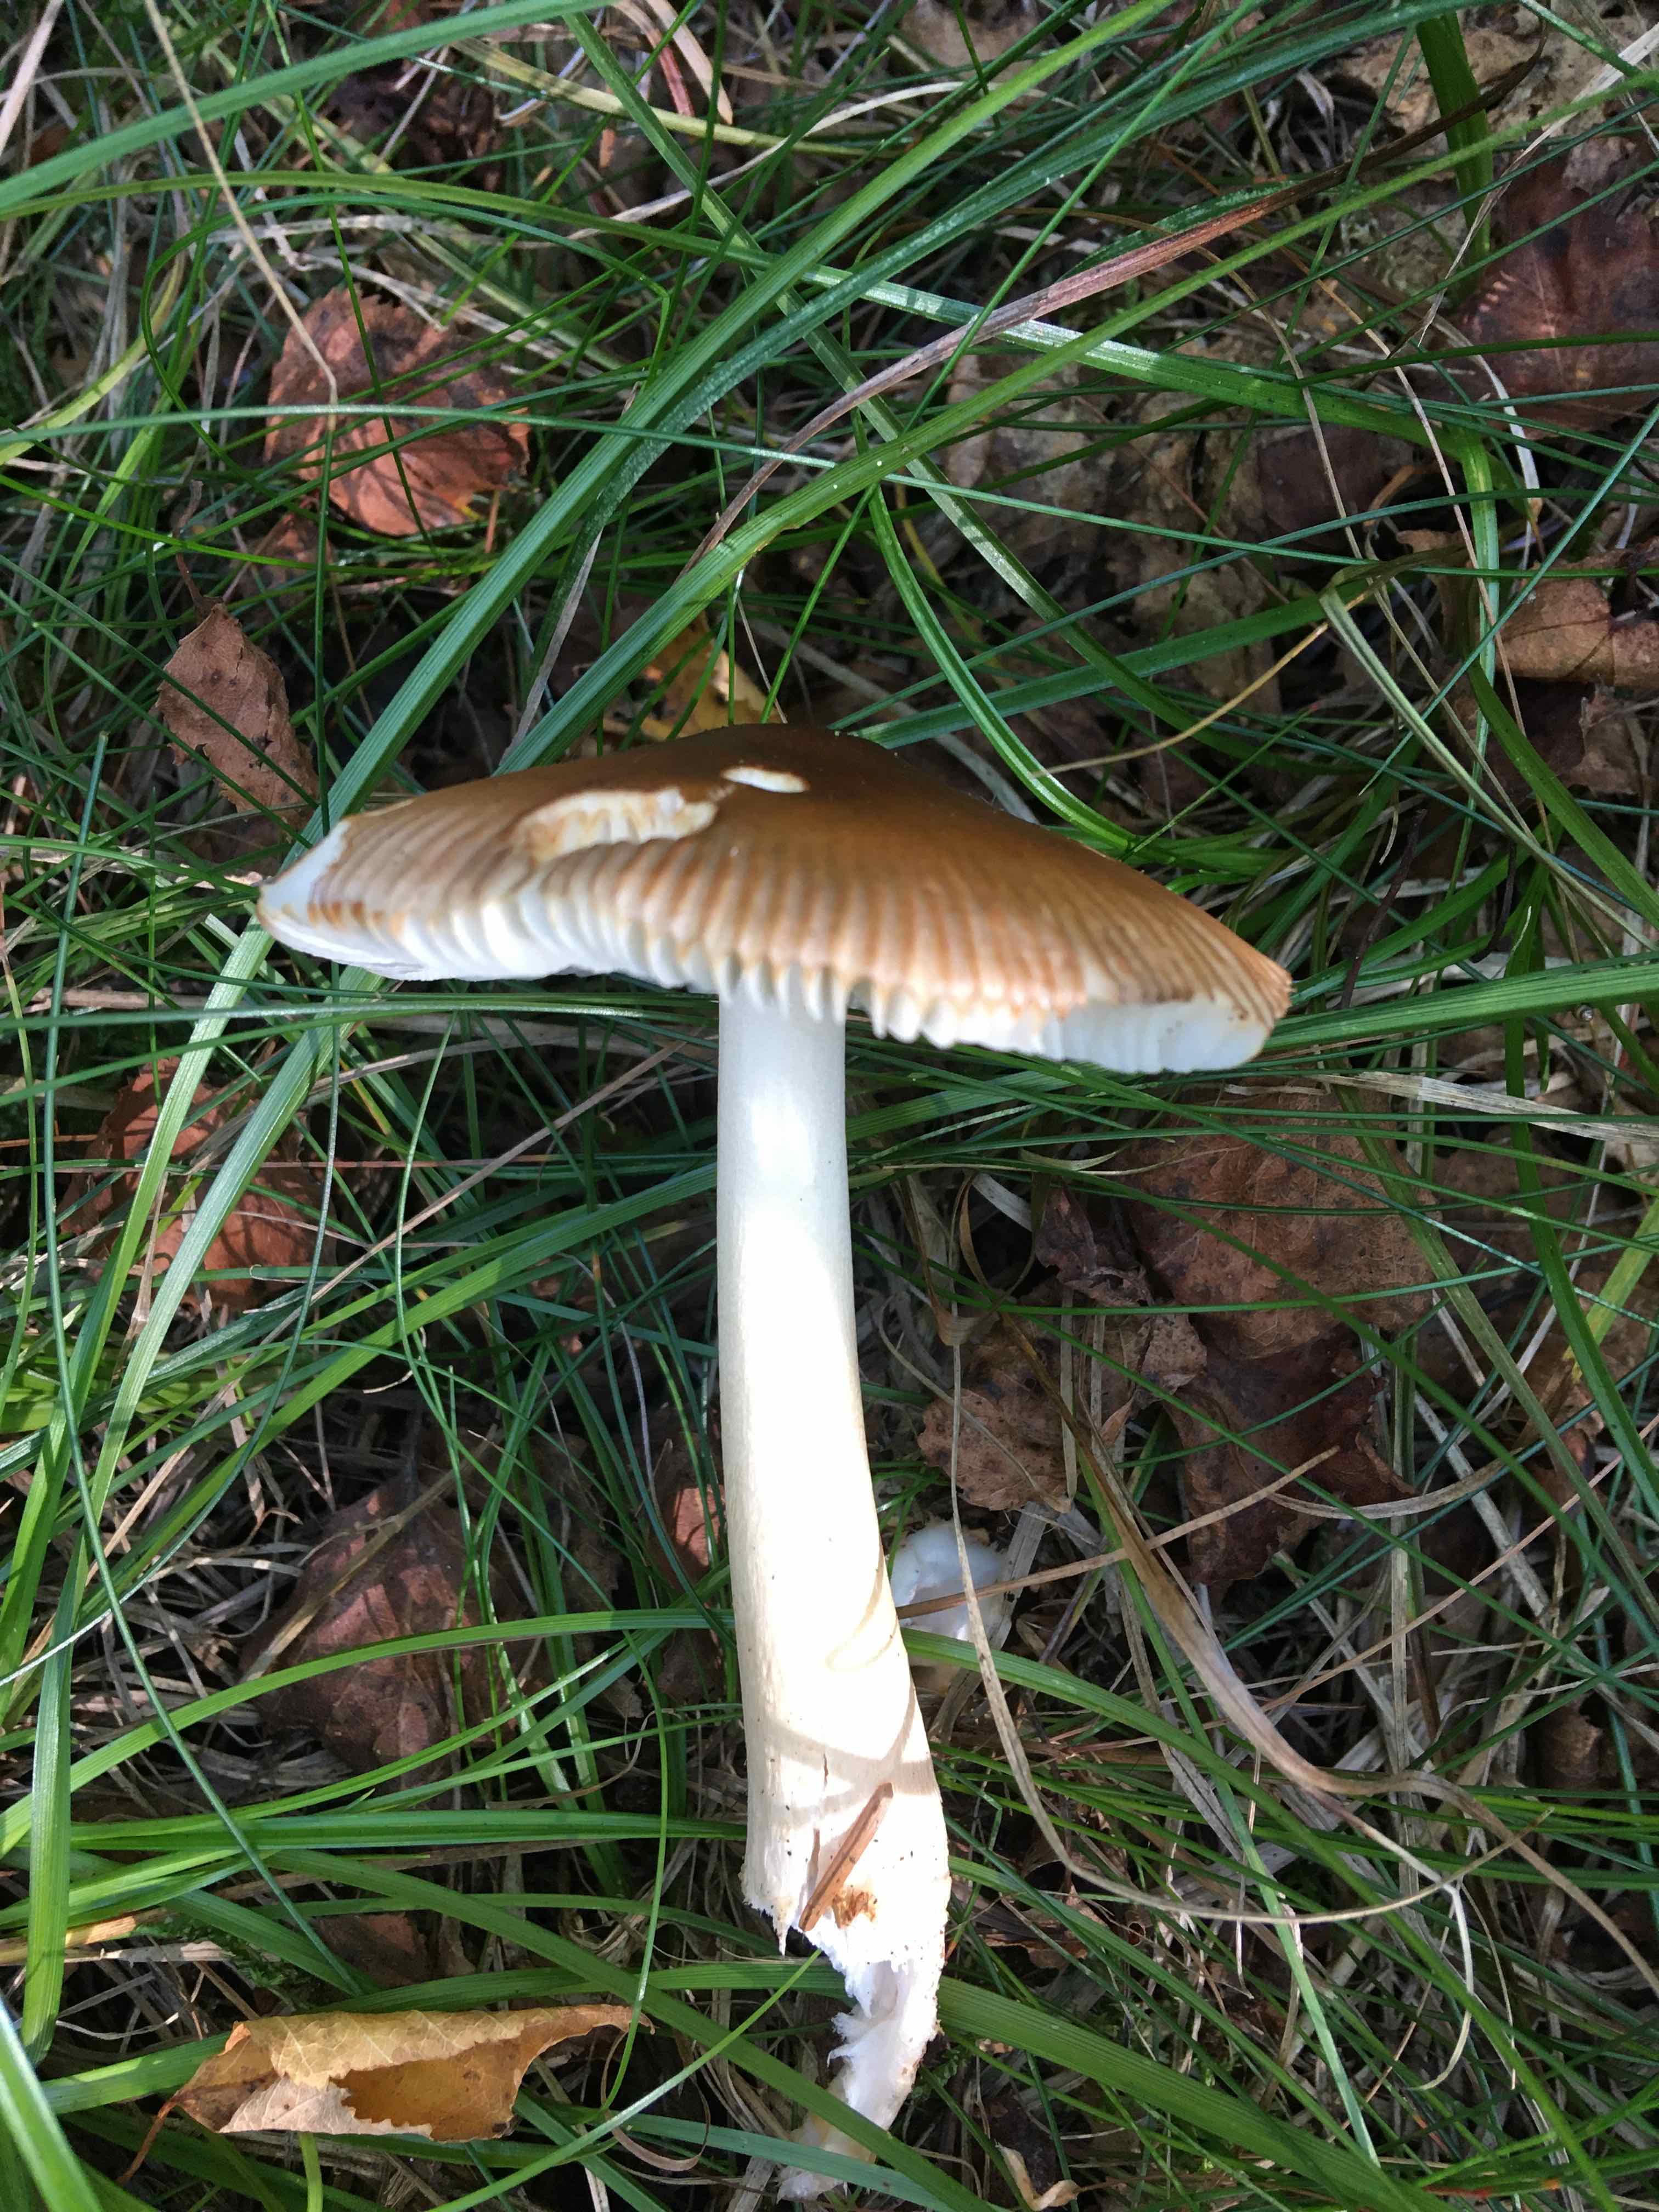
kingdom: Fungi
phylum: Basidiomycota
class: Agaricomycetes
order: Agaricales
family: Amanitaceae
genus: Amanita
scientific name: Amanita fulva
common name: brun kam-fluesvamp
